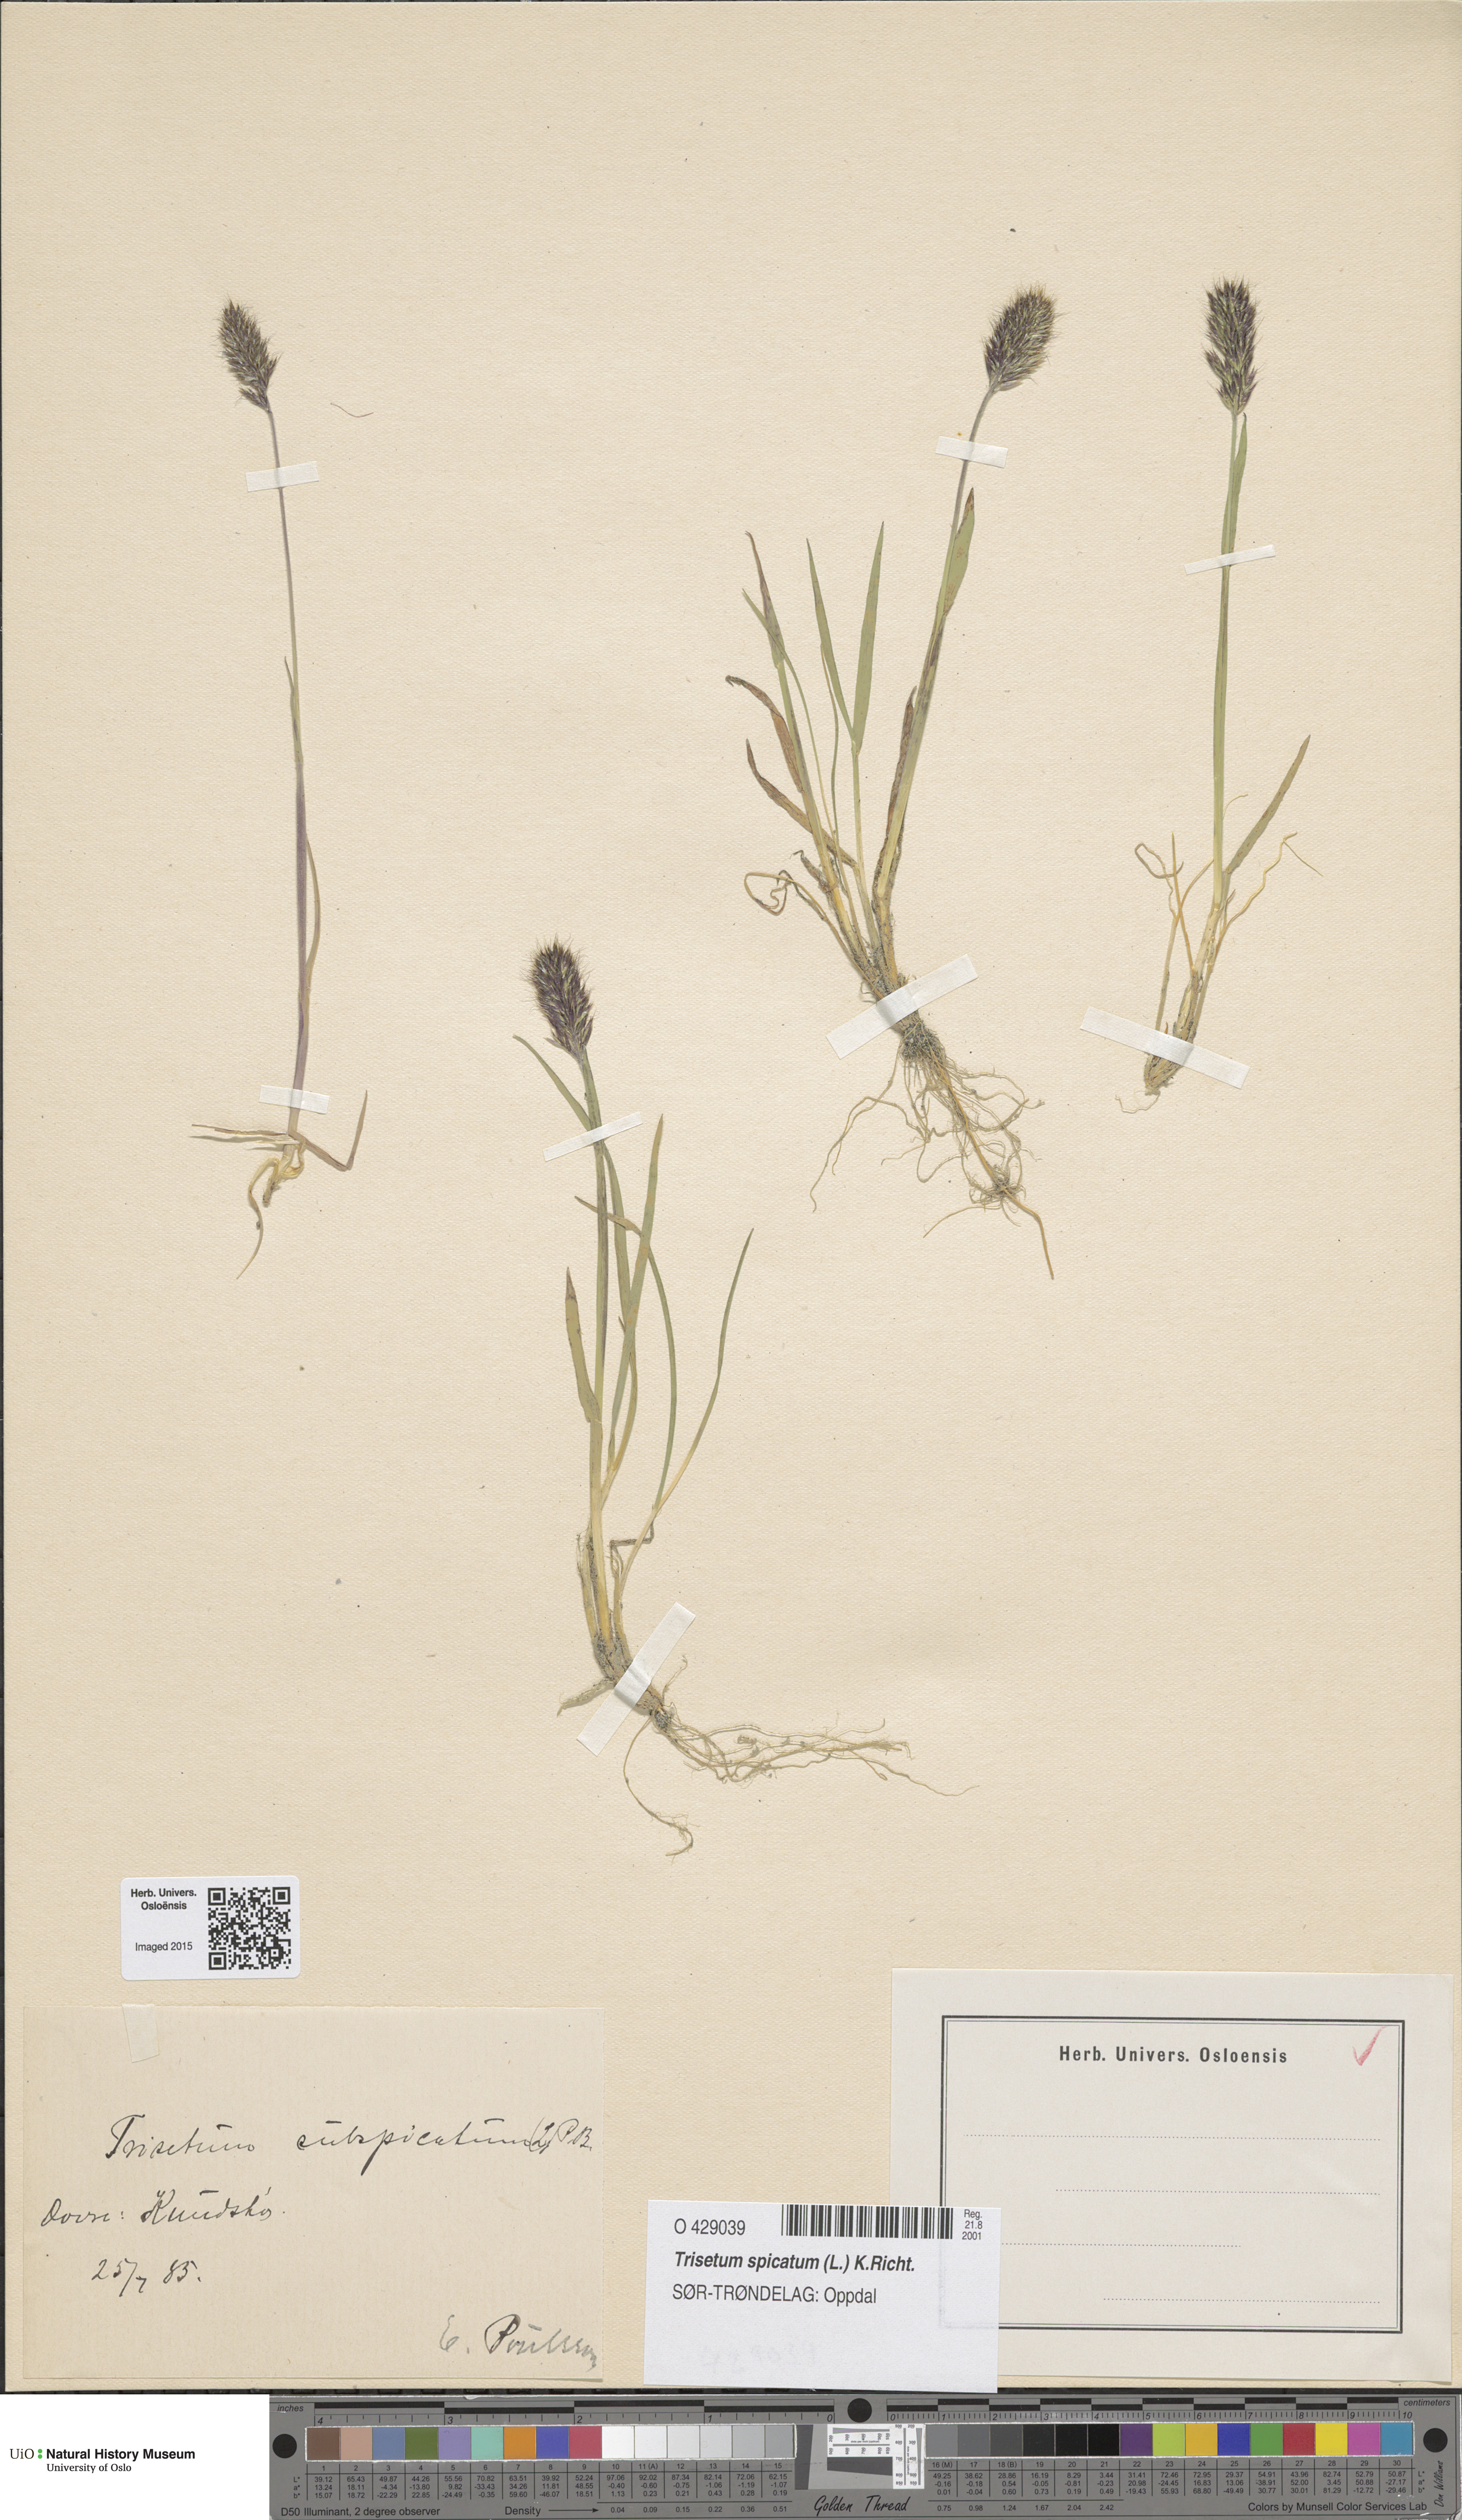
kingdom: Plantae
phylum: Tracheophyta
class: Liliopsida
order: Poales
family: Poaceae
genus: Koeleria
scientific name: Koeleria spicata
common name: Mountain trisetum
